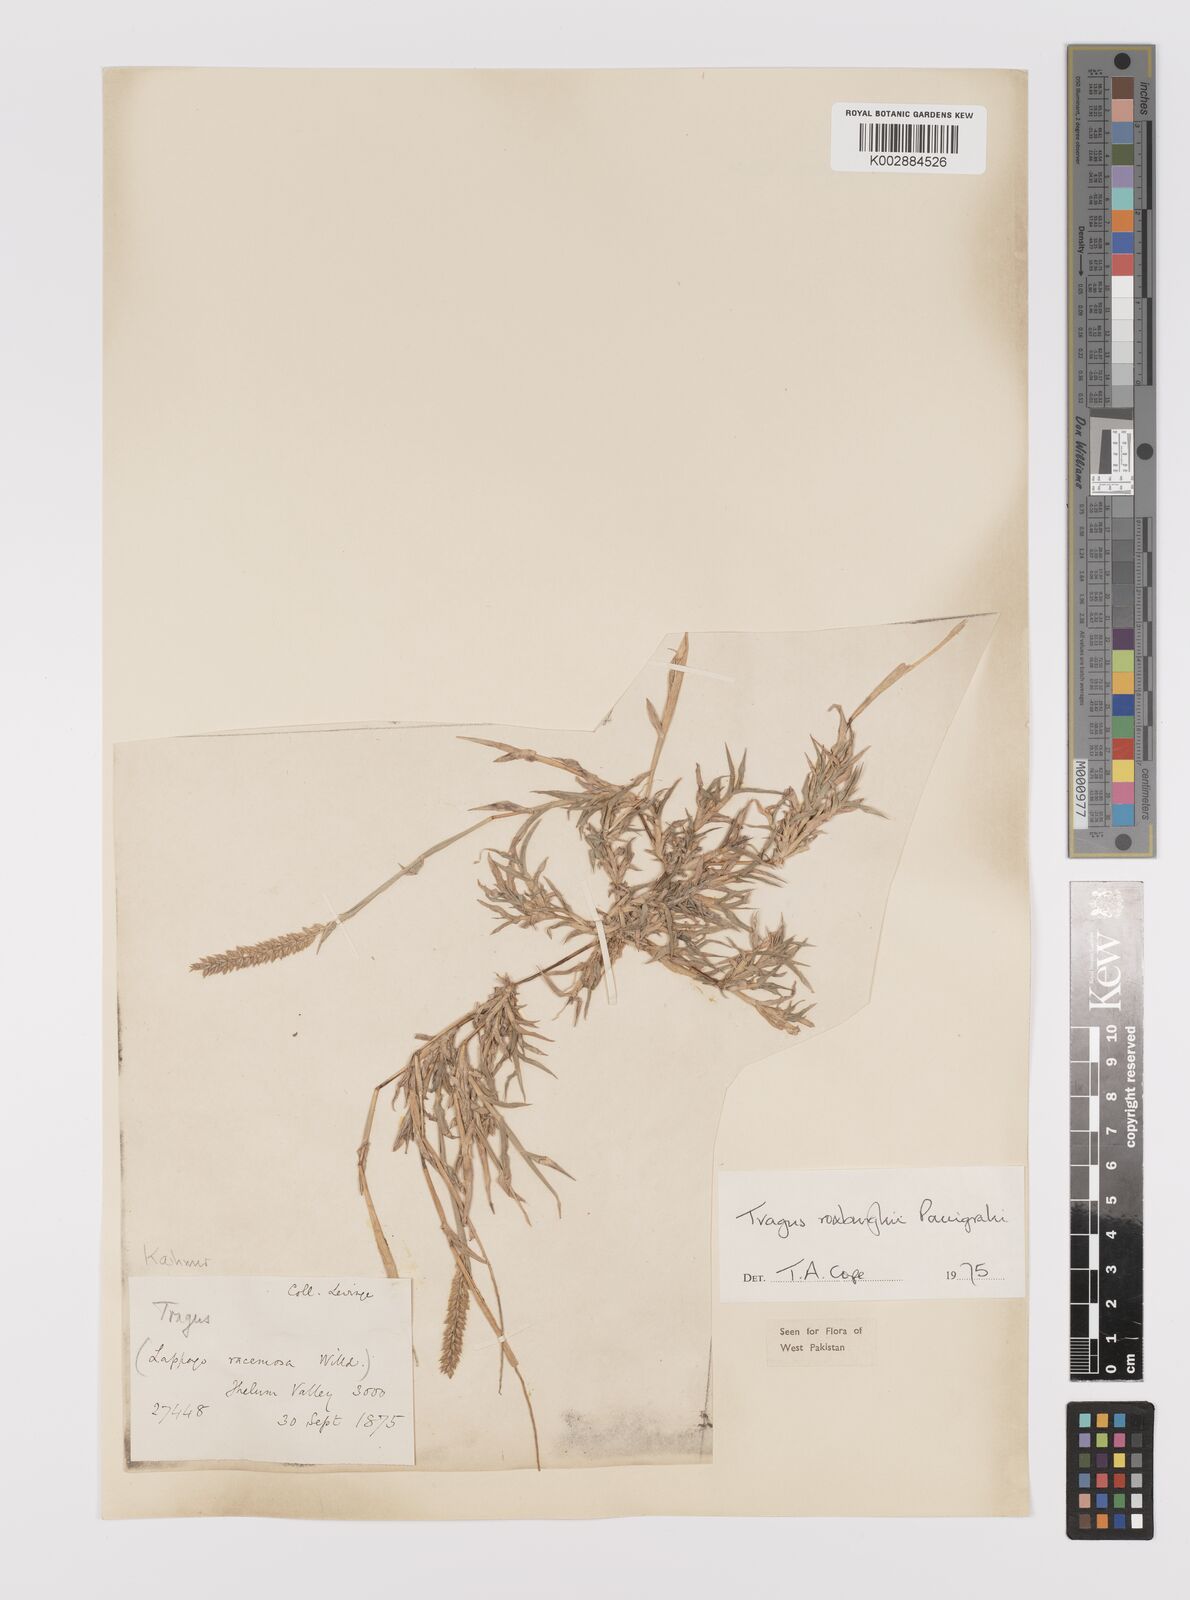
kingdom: Plantae
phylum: Tracheophyta
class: Liliopsida
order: Poales
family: Poaceae
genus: Tragus
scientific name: Tragus mongolorum
